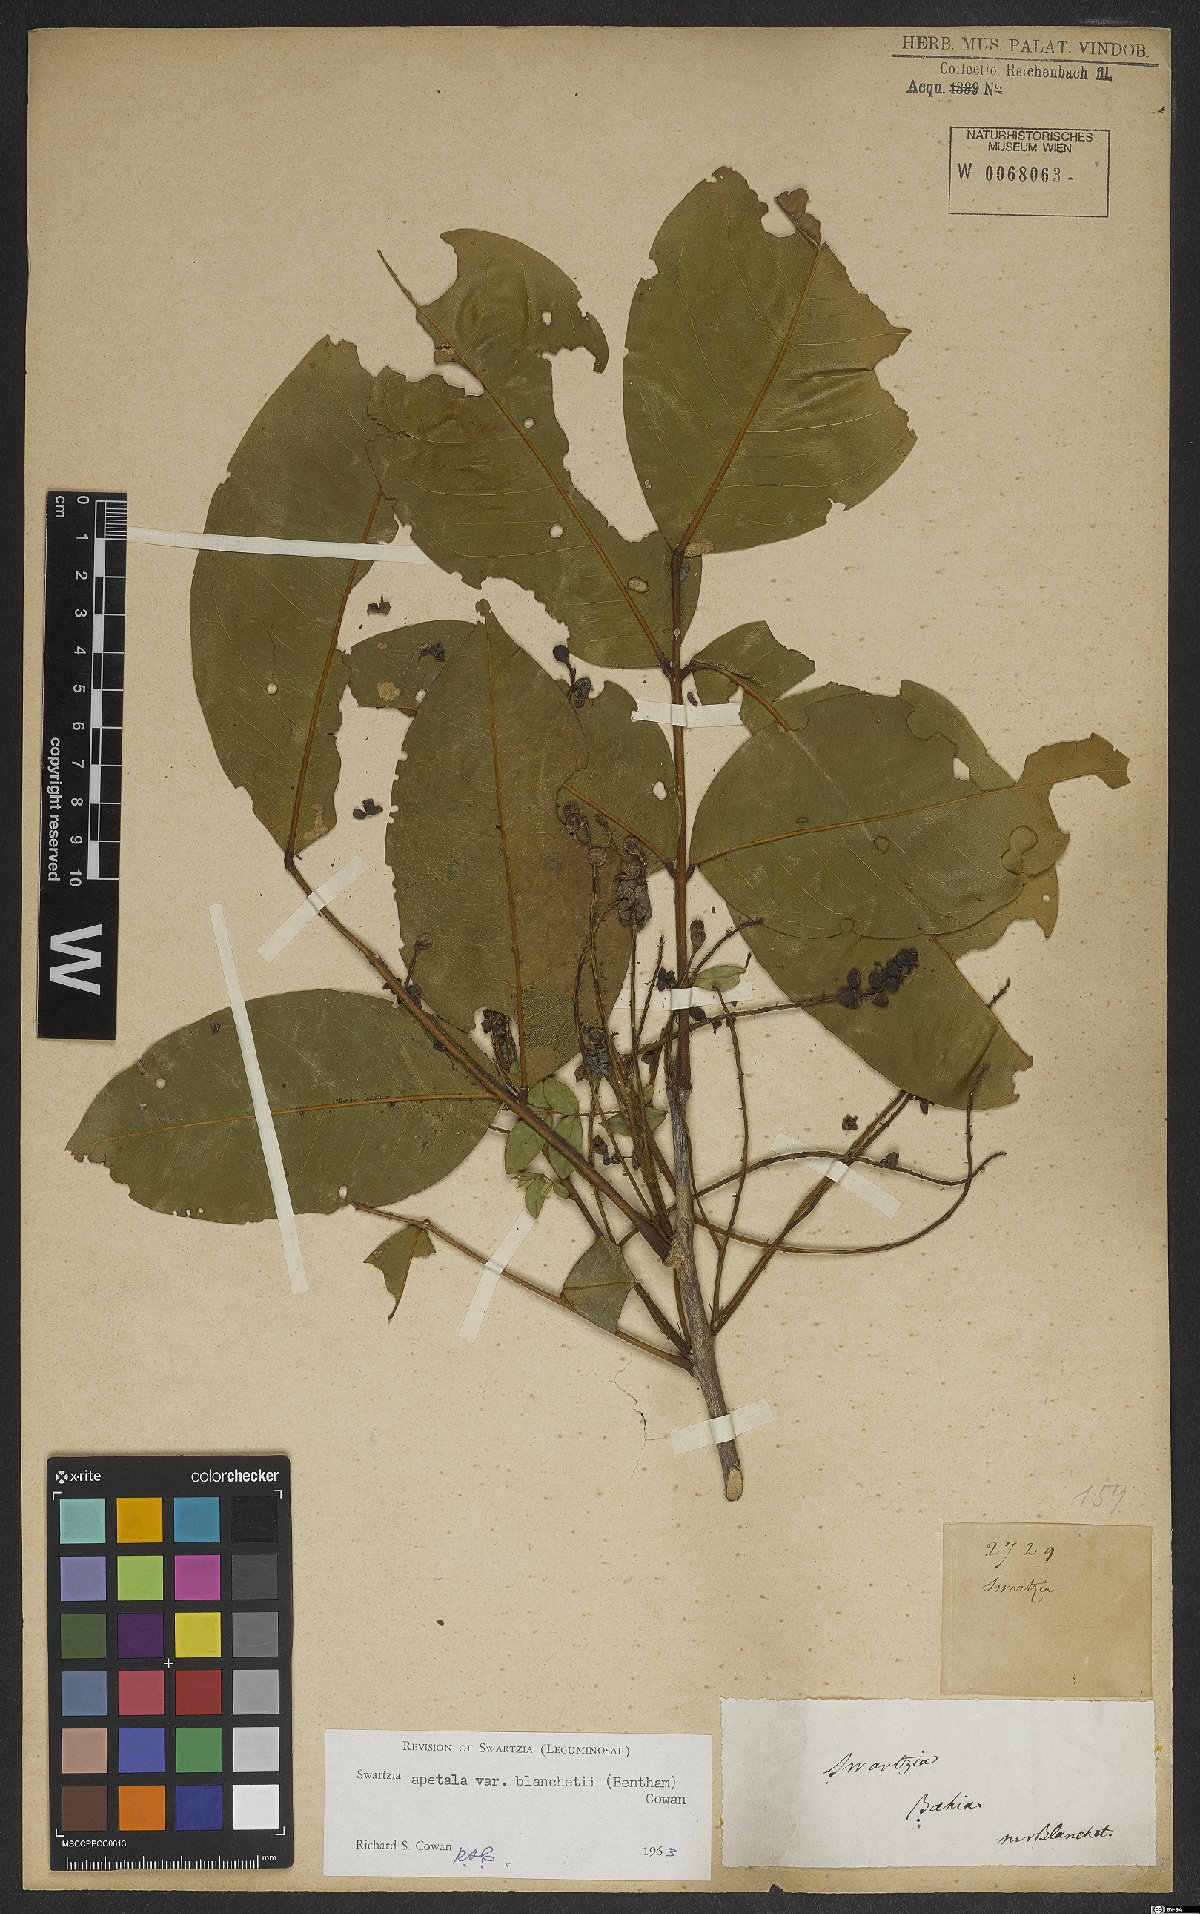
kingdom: Plantae
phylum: Tracheophyta
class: Magnoliopsida
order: Fabales
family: Fabaceae
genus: Swartzia
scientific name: Swartzia apetala
